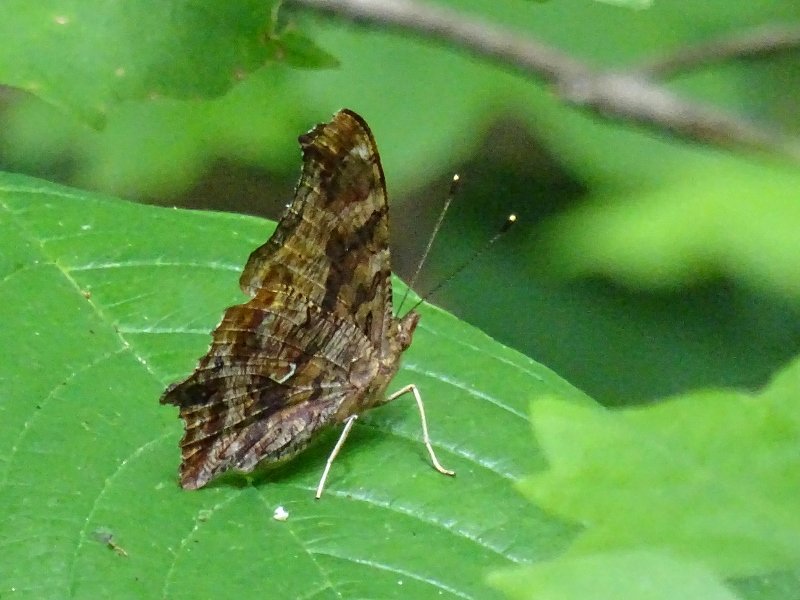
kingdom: Animalia
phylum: Arthropoda
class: Insecta
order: Lepidoptera
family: Nymphalidae
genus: Polygonia
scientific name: Polygonia comma
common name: Eastern Comma
